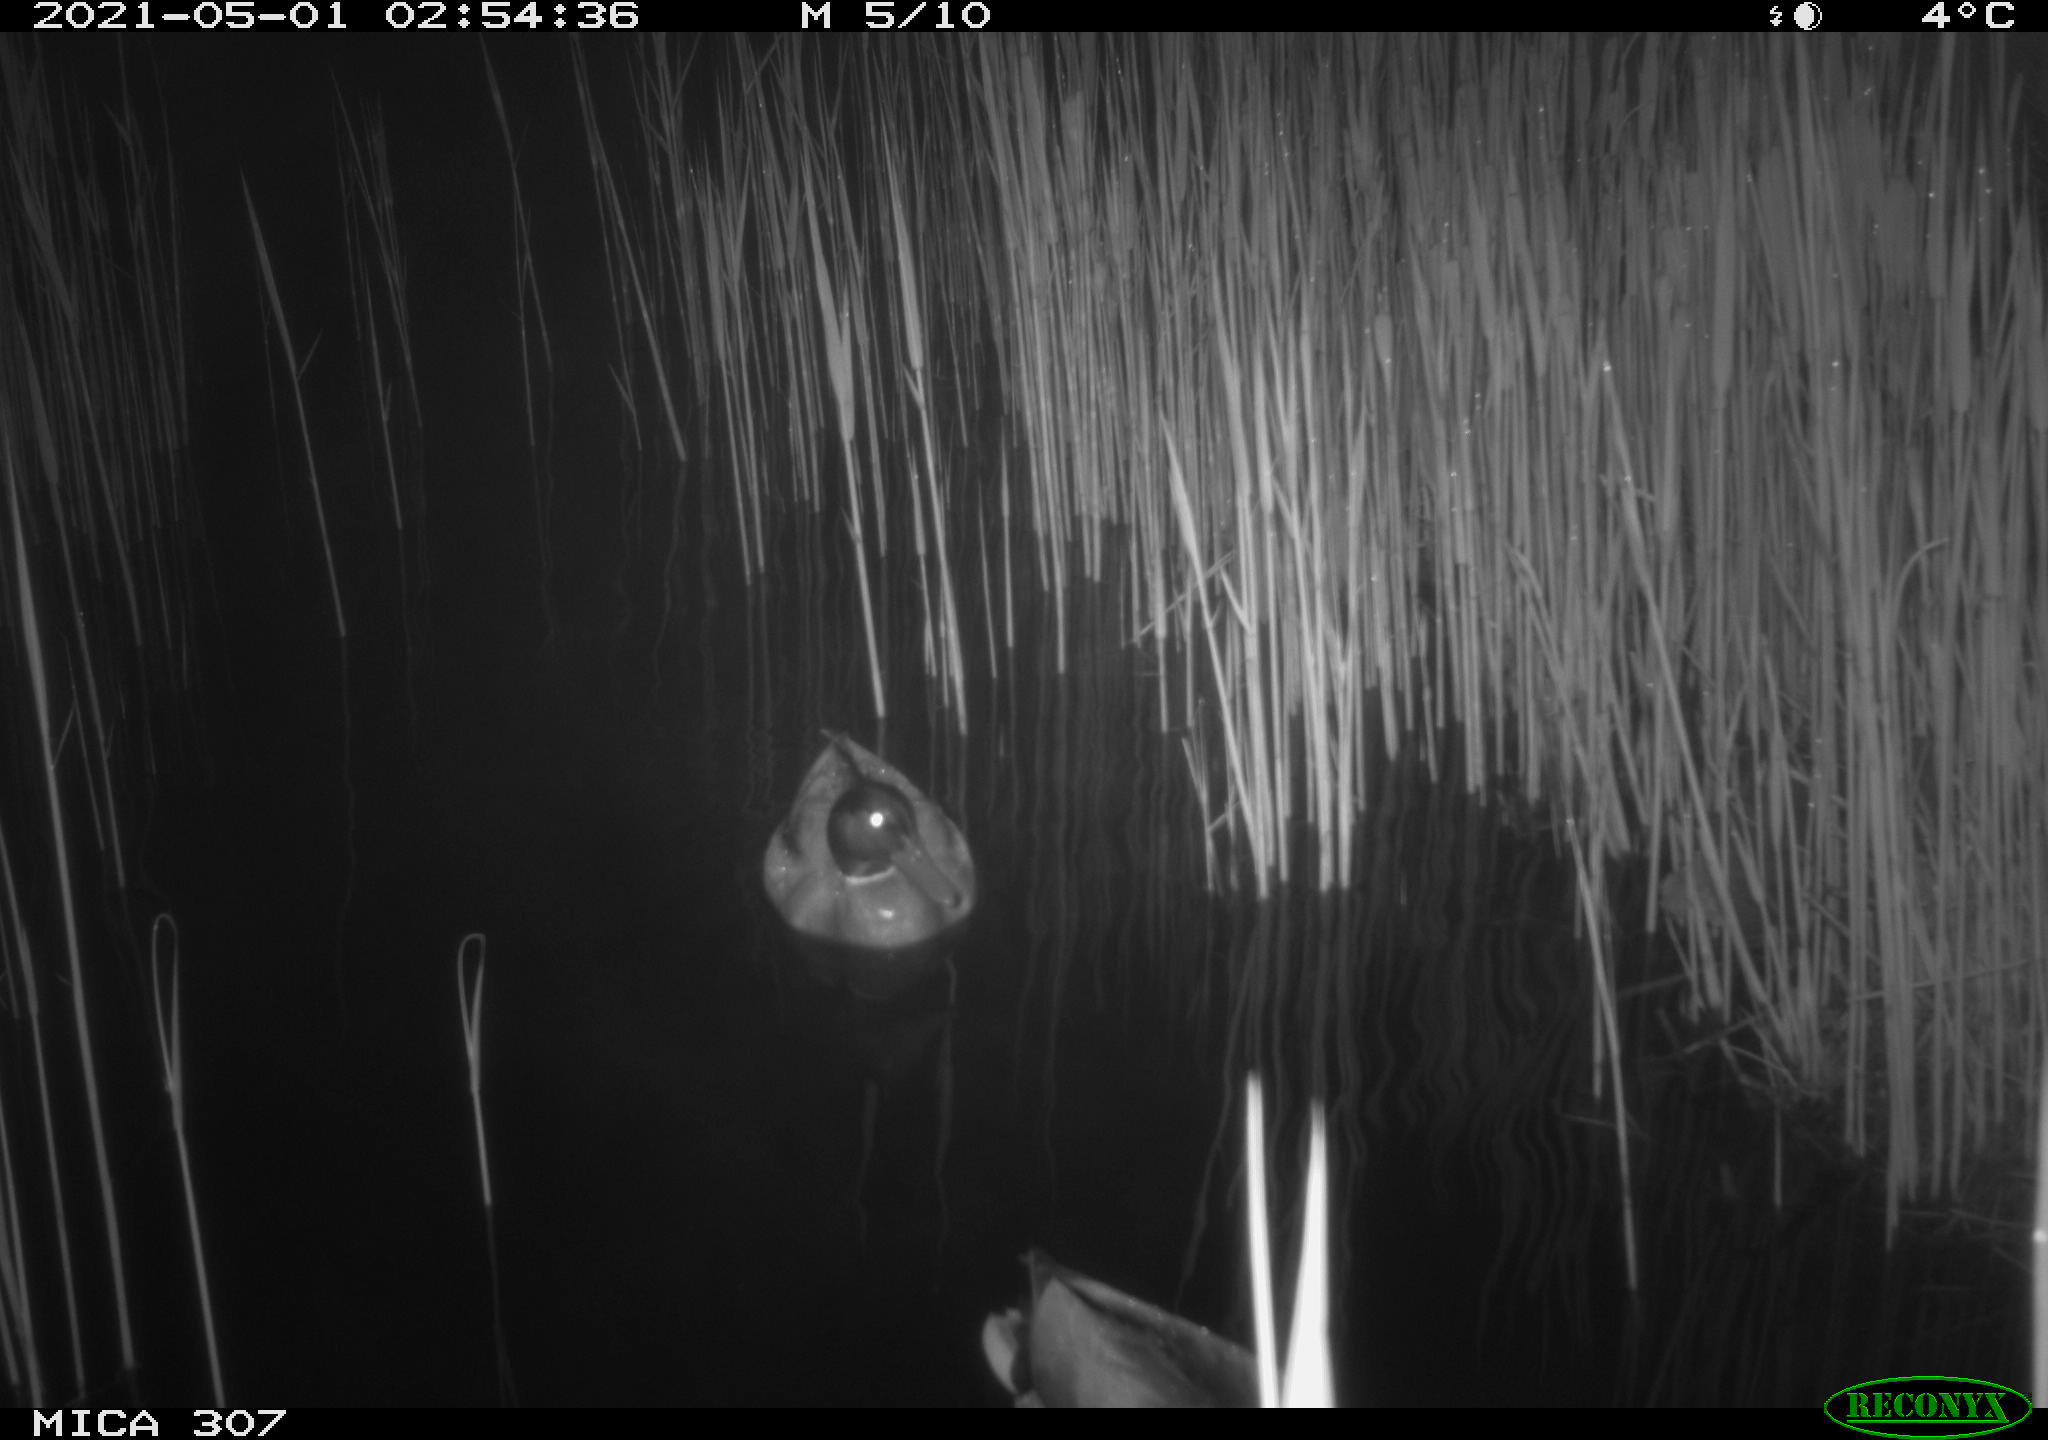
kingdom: Animalia
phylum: Chordata
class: Aves
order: Gruiformes
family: Rallidae
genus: Gallinula
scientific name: Gallinula chloropus
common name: Common moorhen
